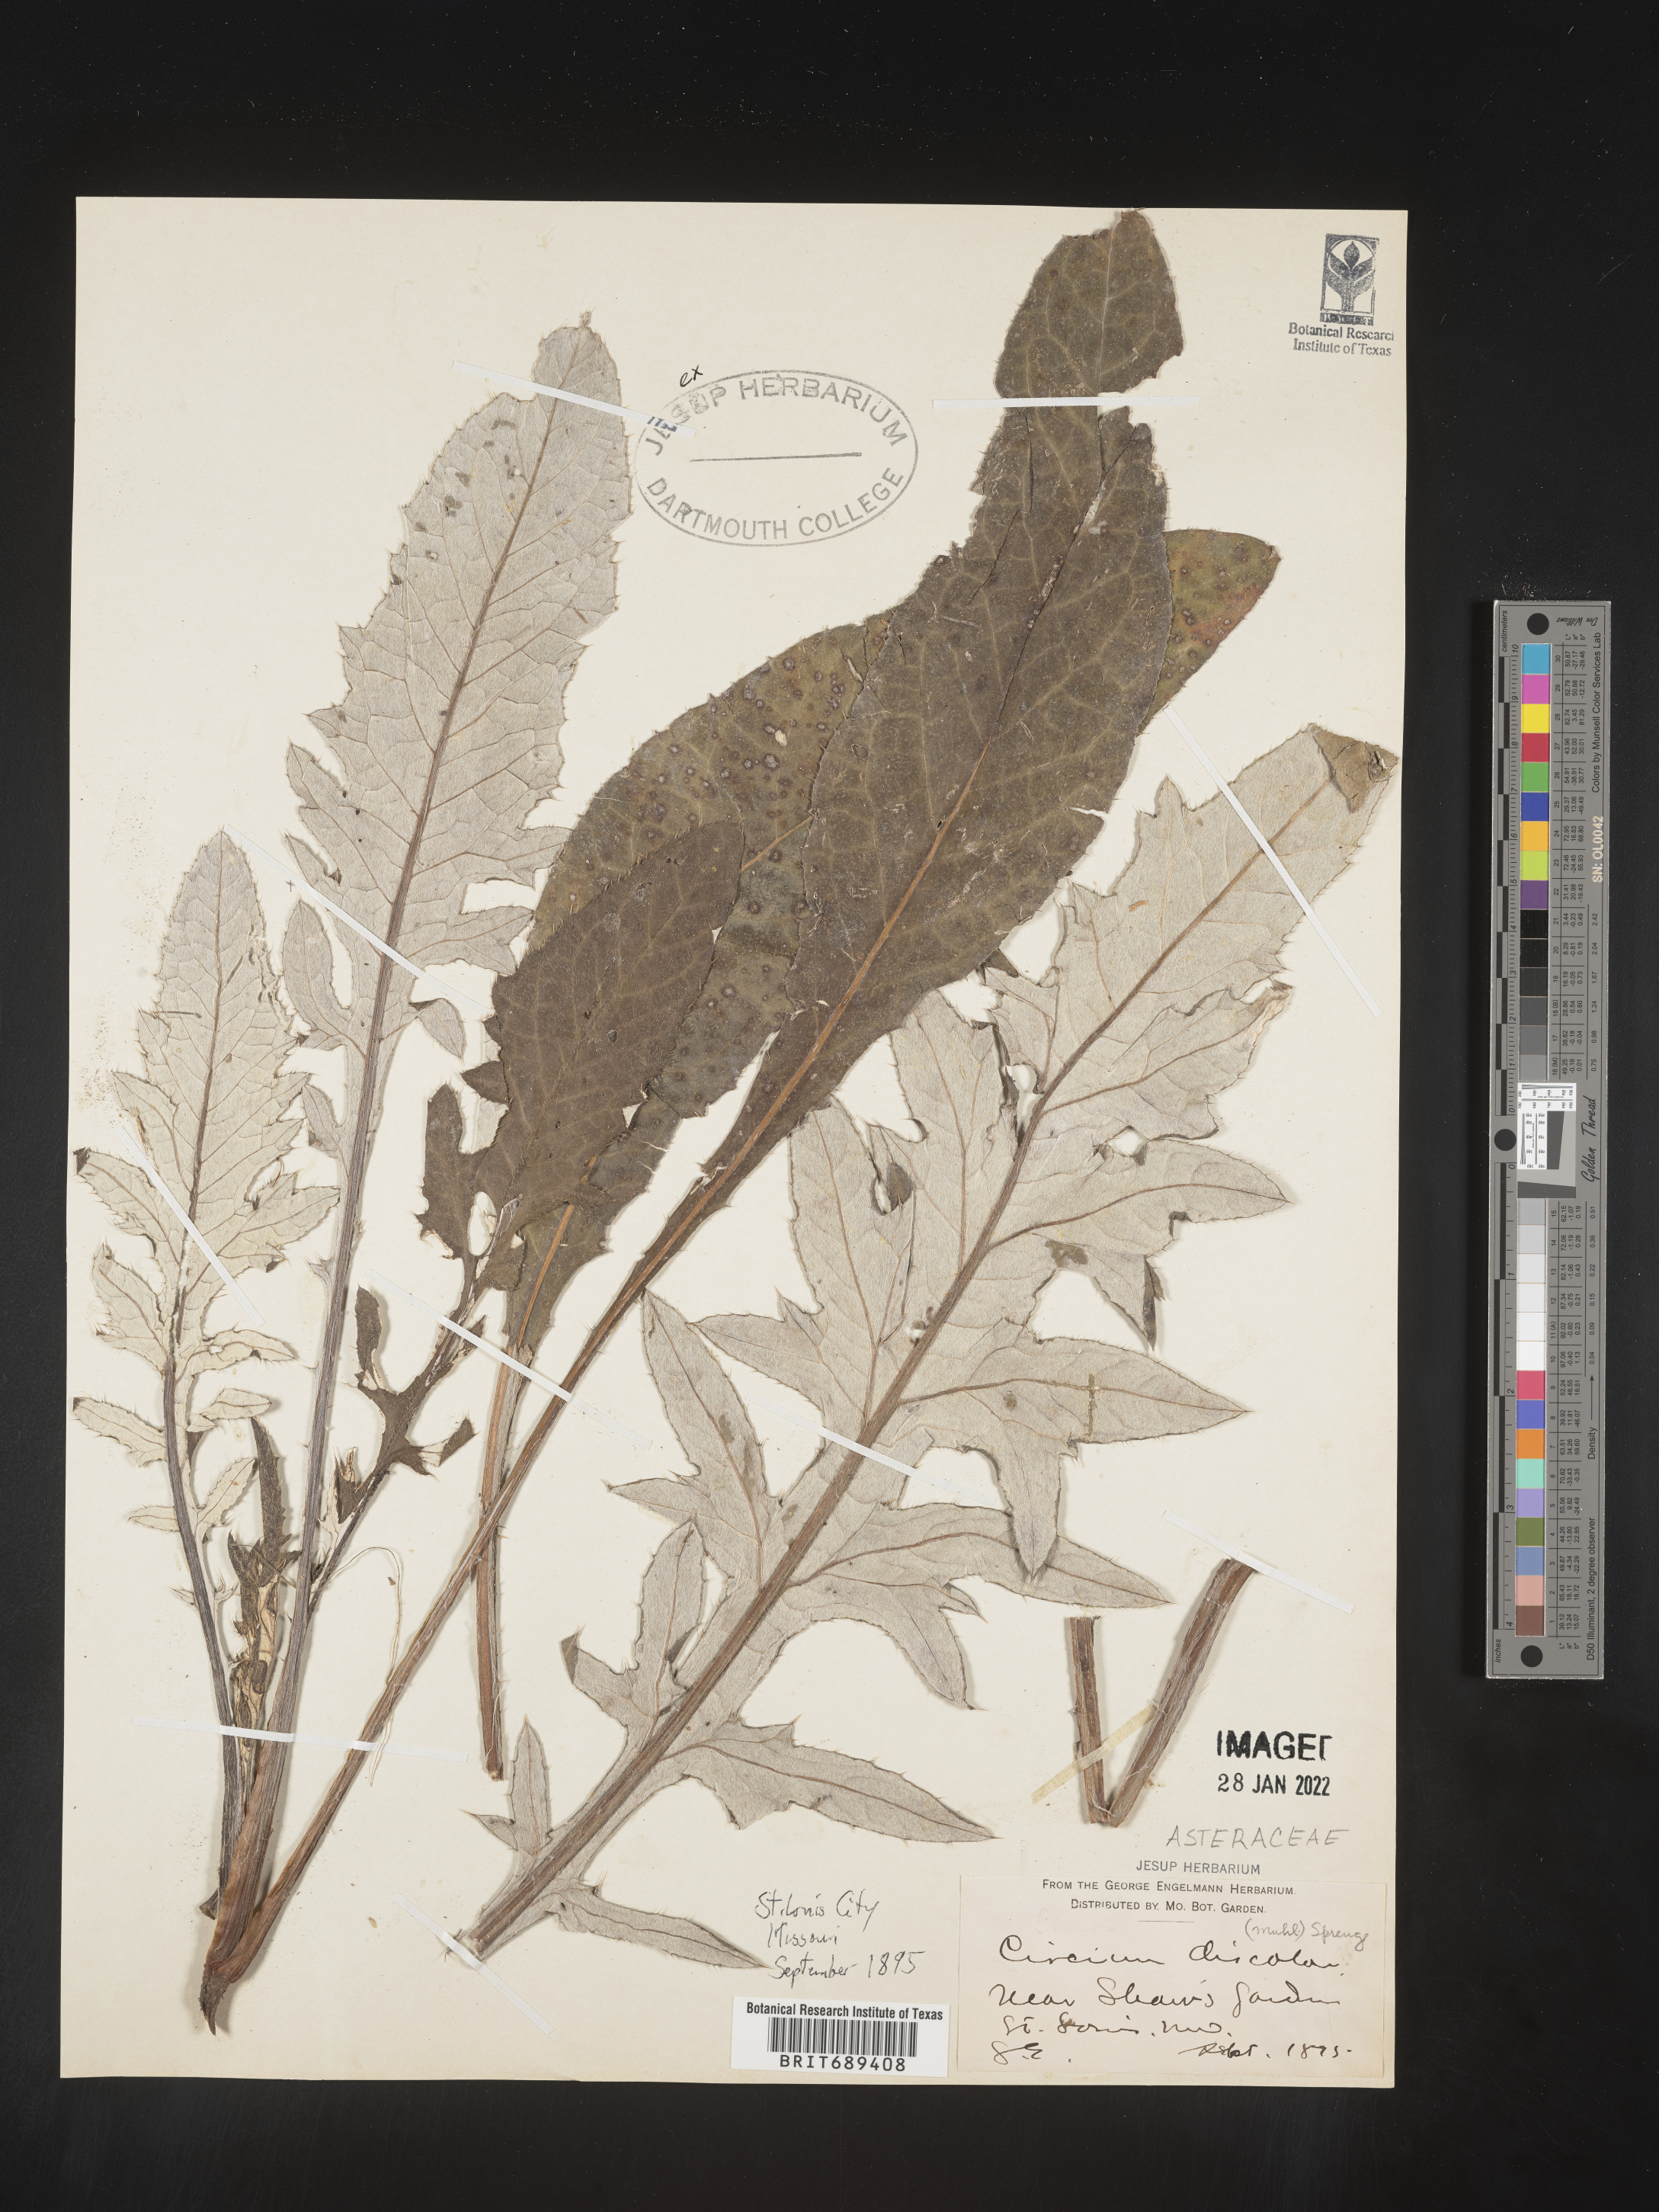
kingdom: Plantae
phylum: Tracheophyta
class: Magnoliopsida
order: Asterales
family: Asteraceae
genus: Cirsium
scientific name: Cirsium
